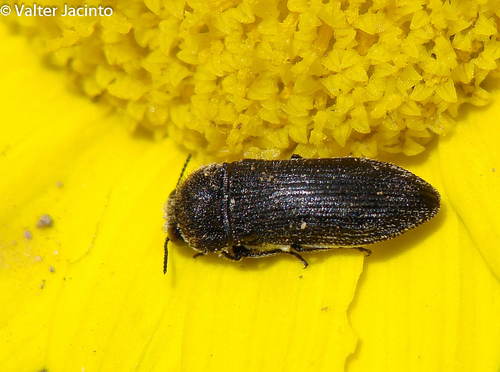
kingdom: Animalia
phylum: Arthropoda
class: Insecta
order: Coleoptera
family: Buprestidae
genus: Acmaeodera
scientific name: Acmaeodera cylindrica
